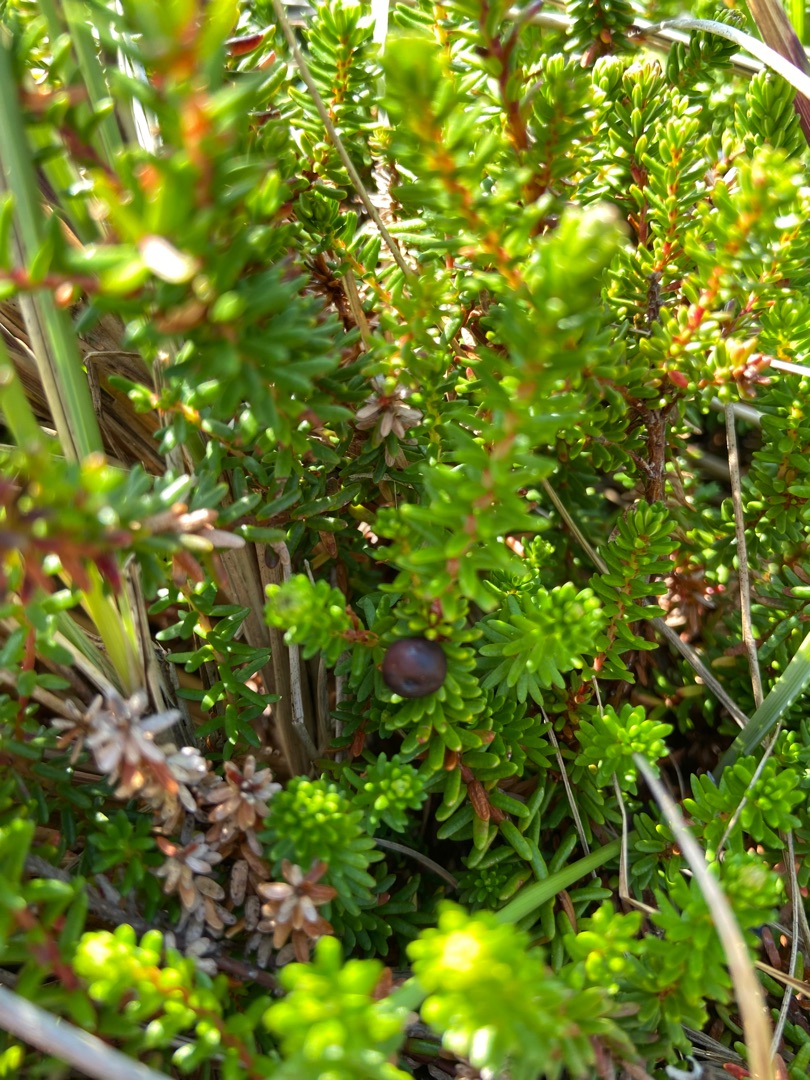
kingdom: Plantae
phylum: Tracheophyta
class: Magnoliopsida
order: Ericales
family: Ericaceae
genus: Empetrum
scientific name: Empetrum nigrum
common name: Revling
